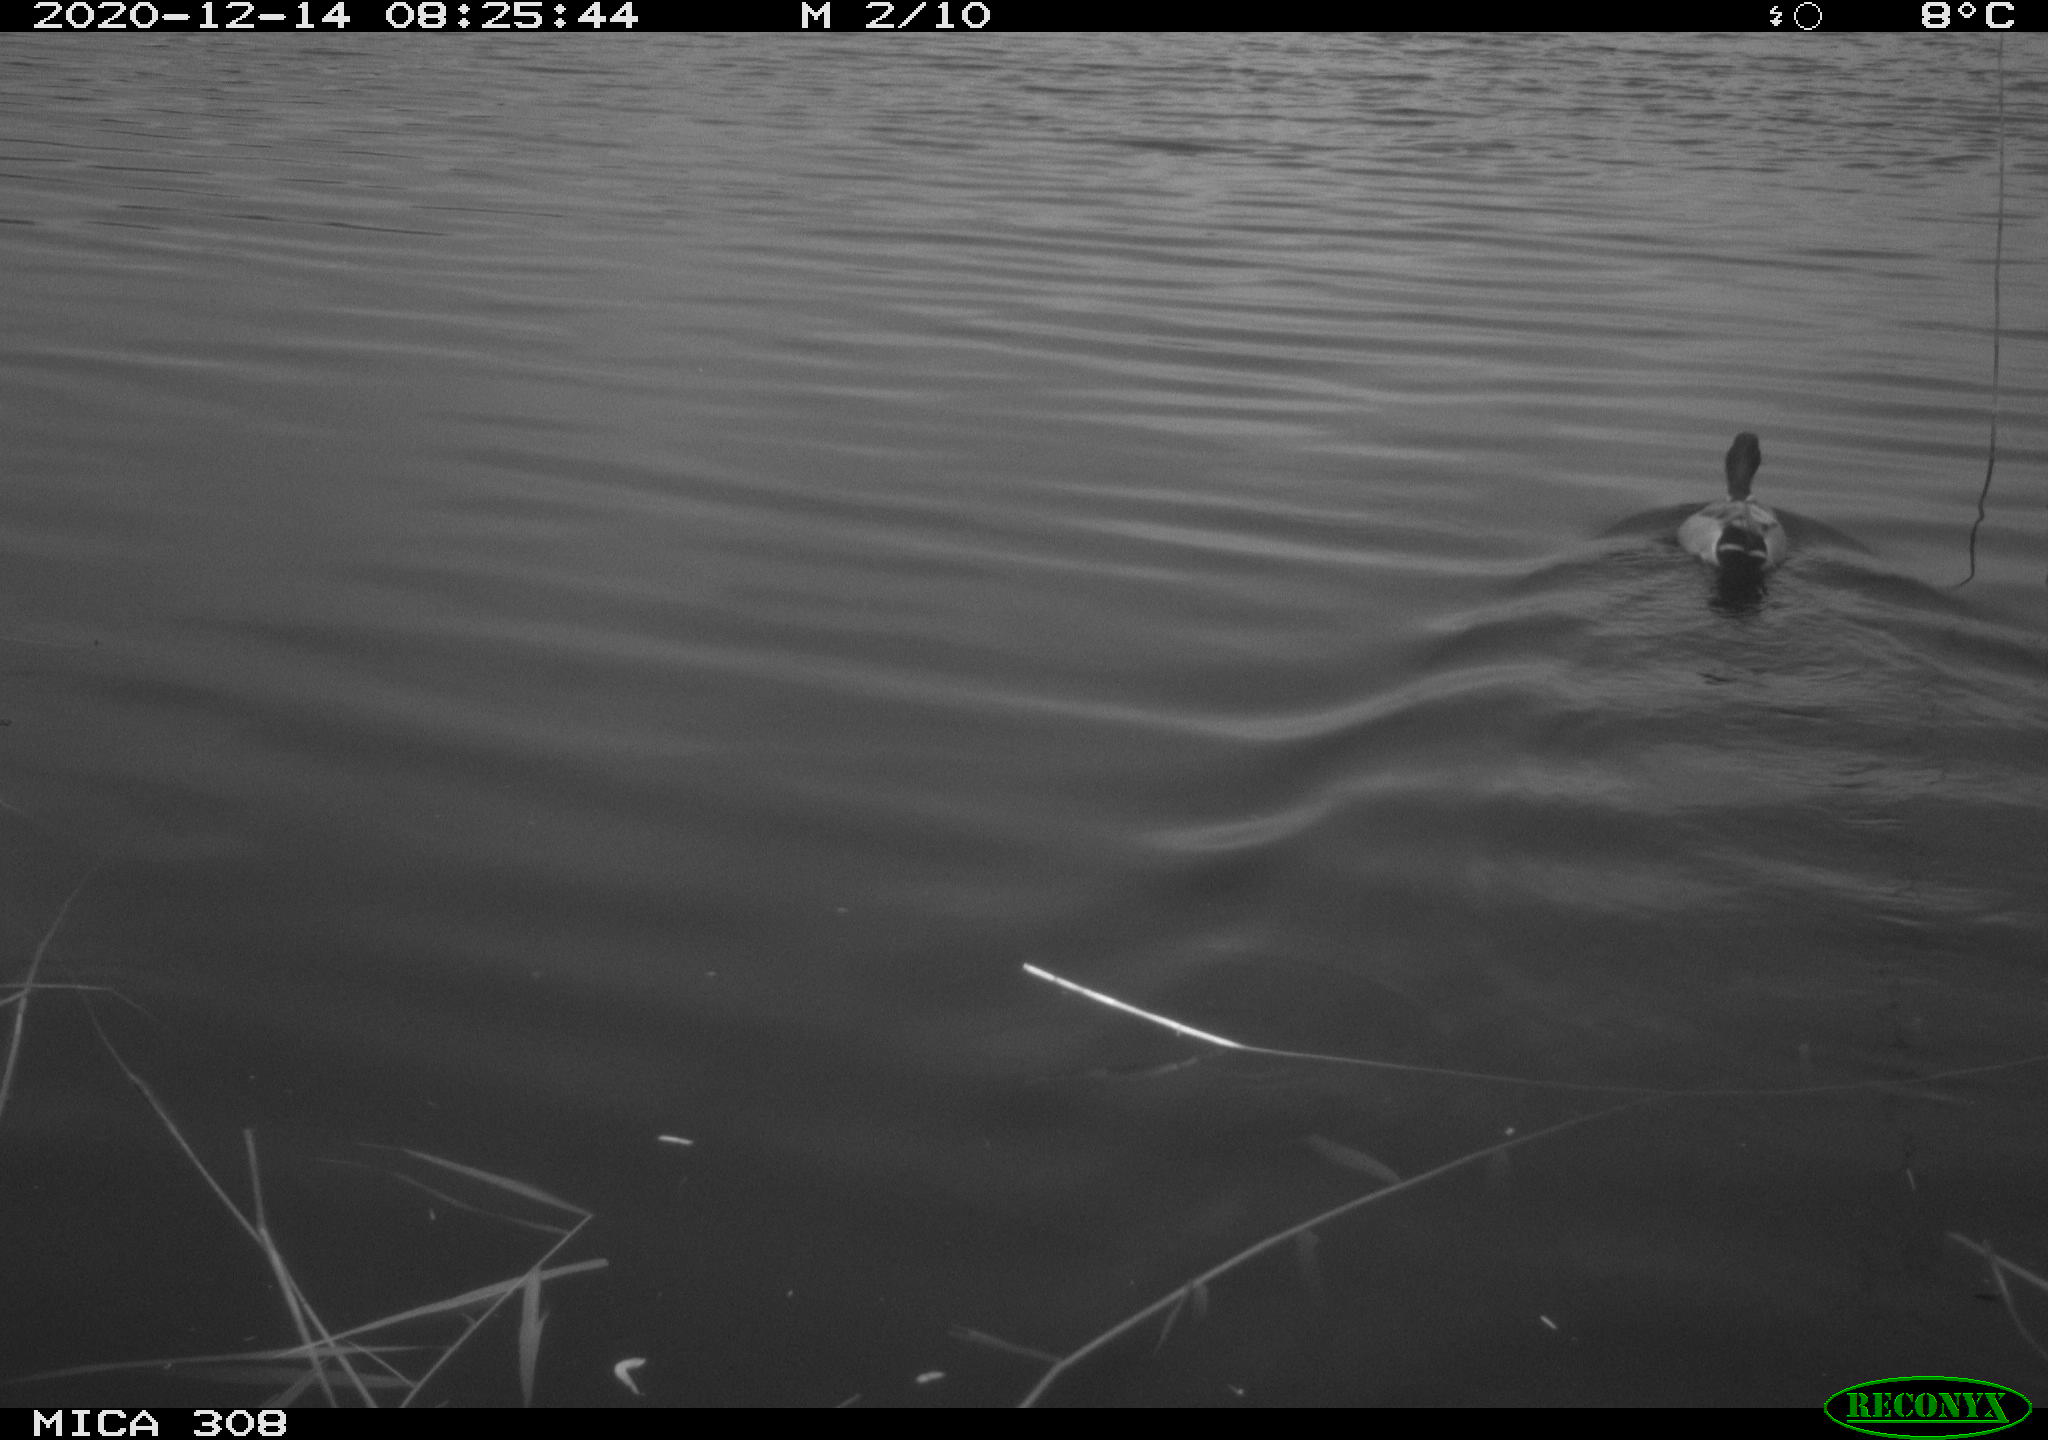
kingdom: Animalia
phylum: Chordata
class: Aves
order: Anseriformes
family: Anatidae
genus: Anas
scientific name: Anas platyrhynchos
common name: Mallard
